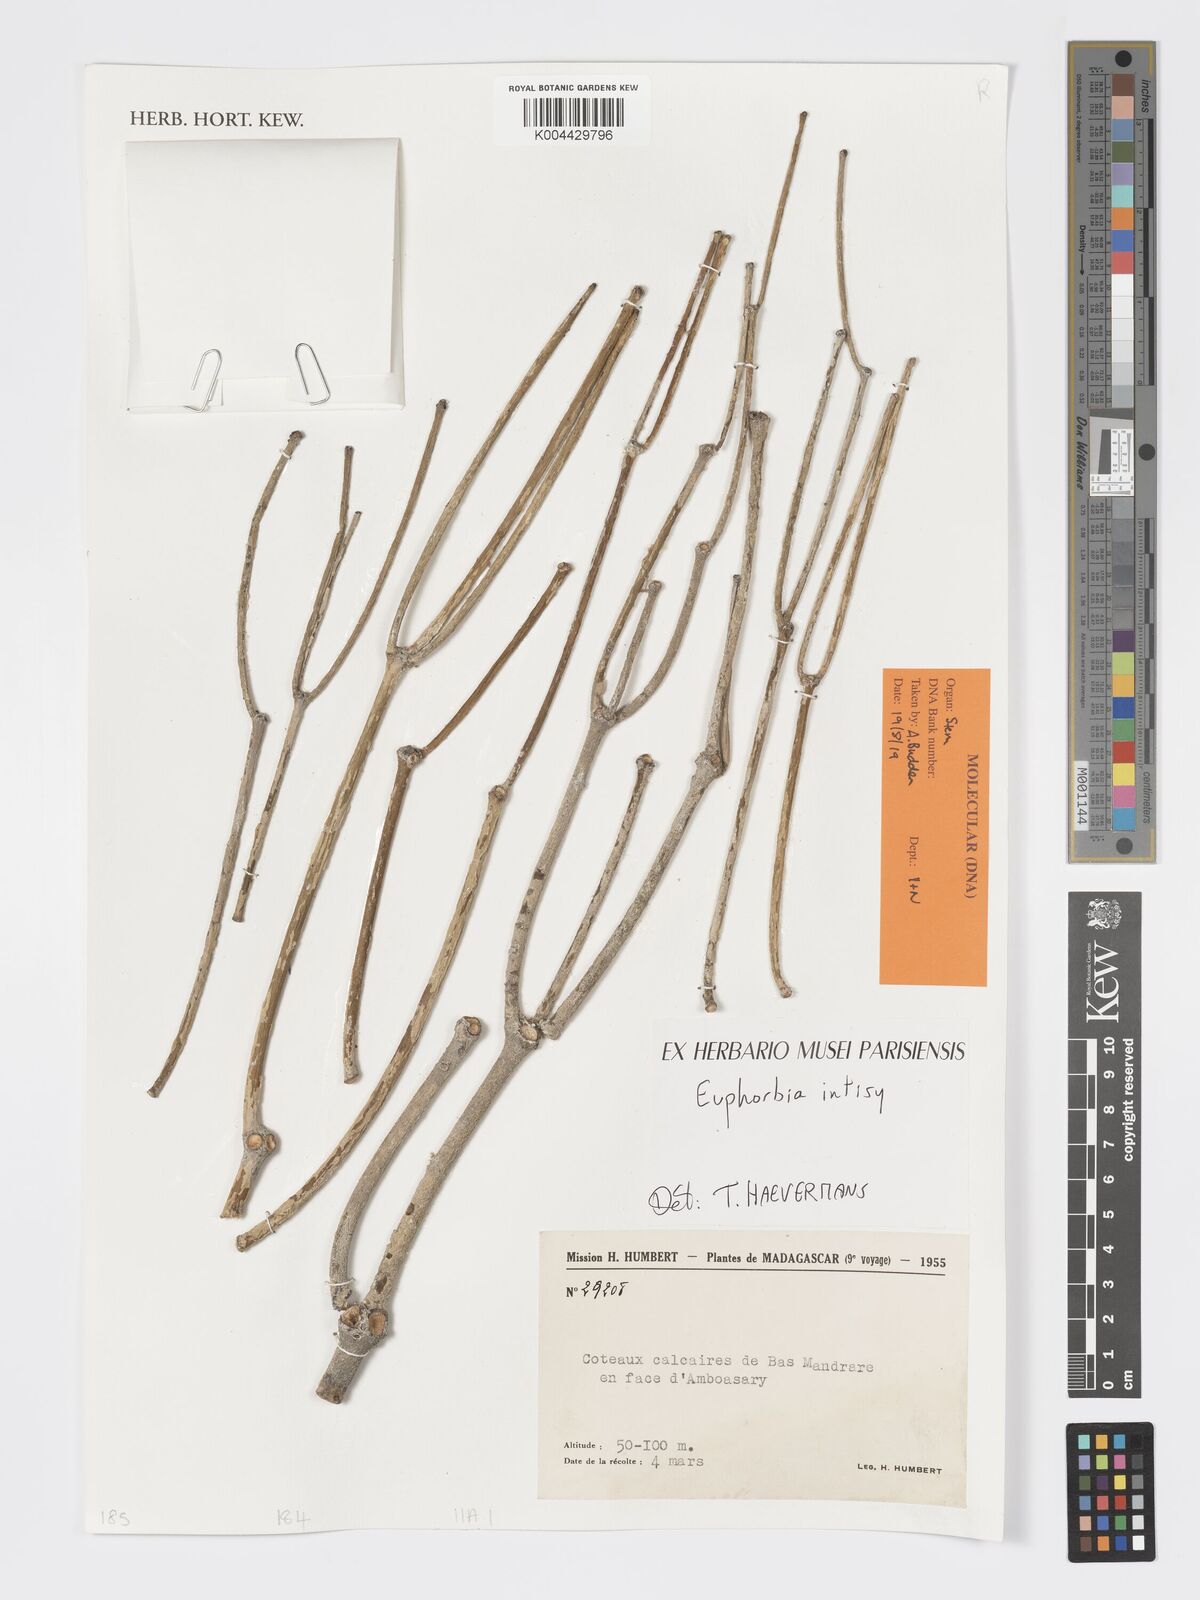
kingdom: Plantae
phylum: Tracheophyta
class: Magnoliopsida
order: Malpighiales
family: Euphorbiaceae
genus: Euphorbia
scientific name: Euphorbia intisy
